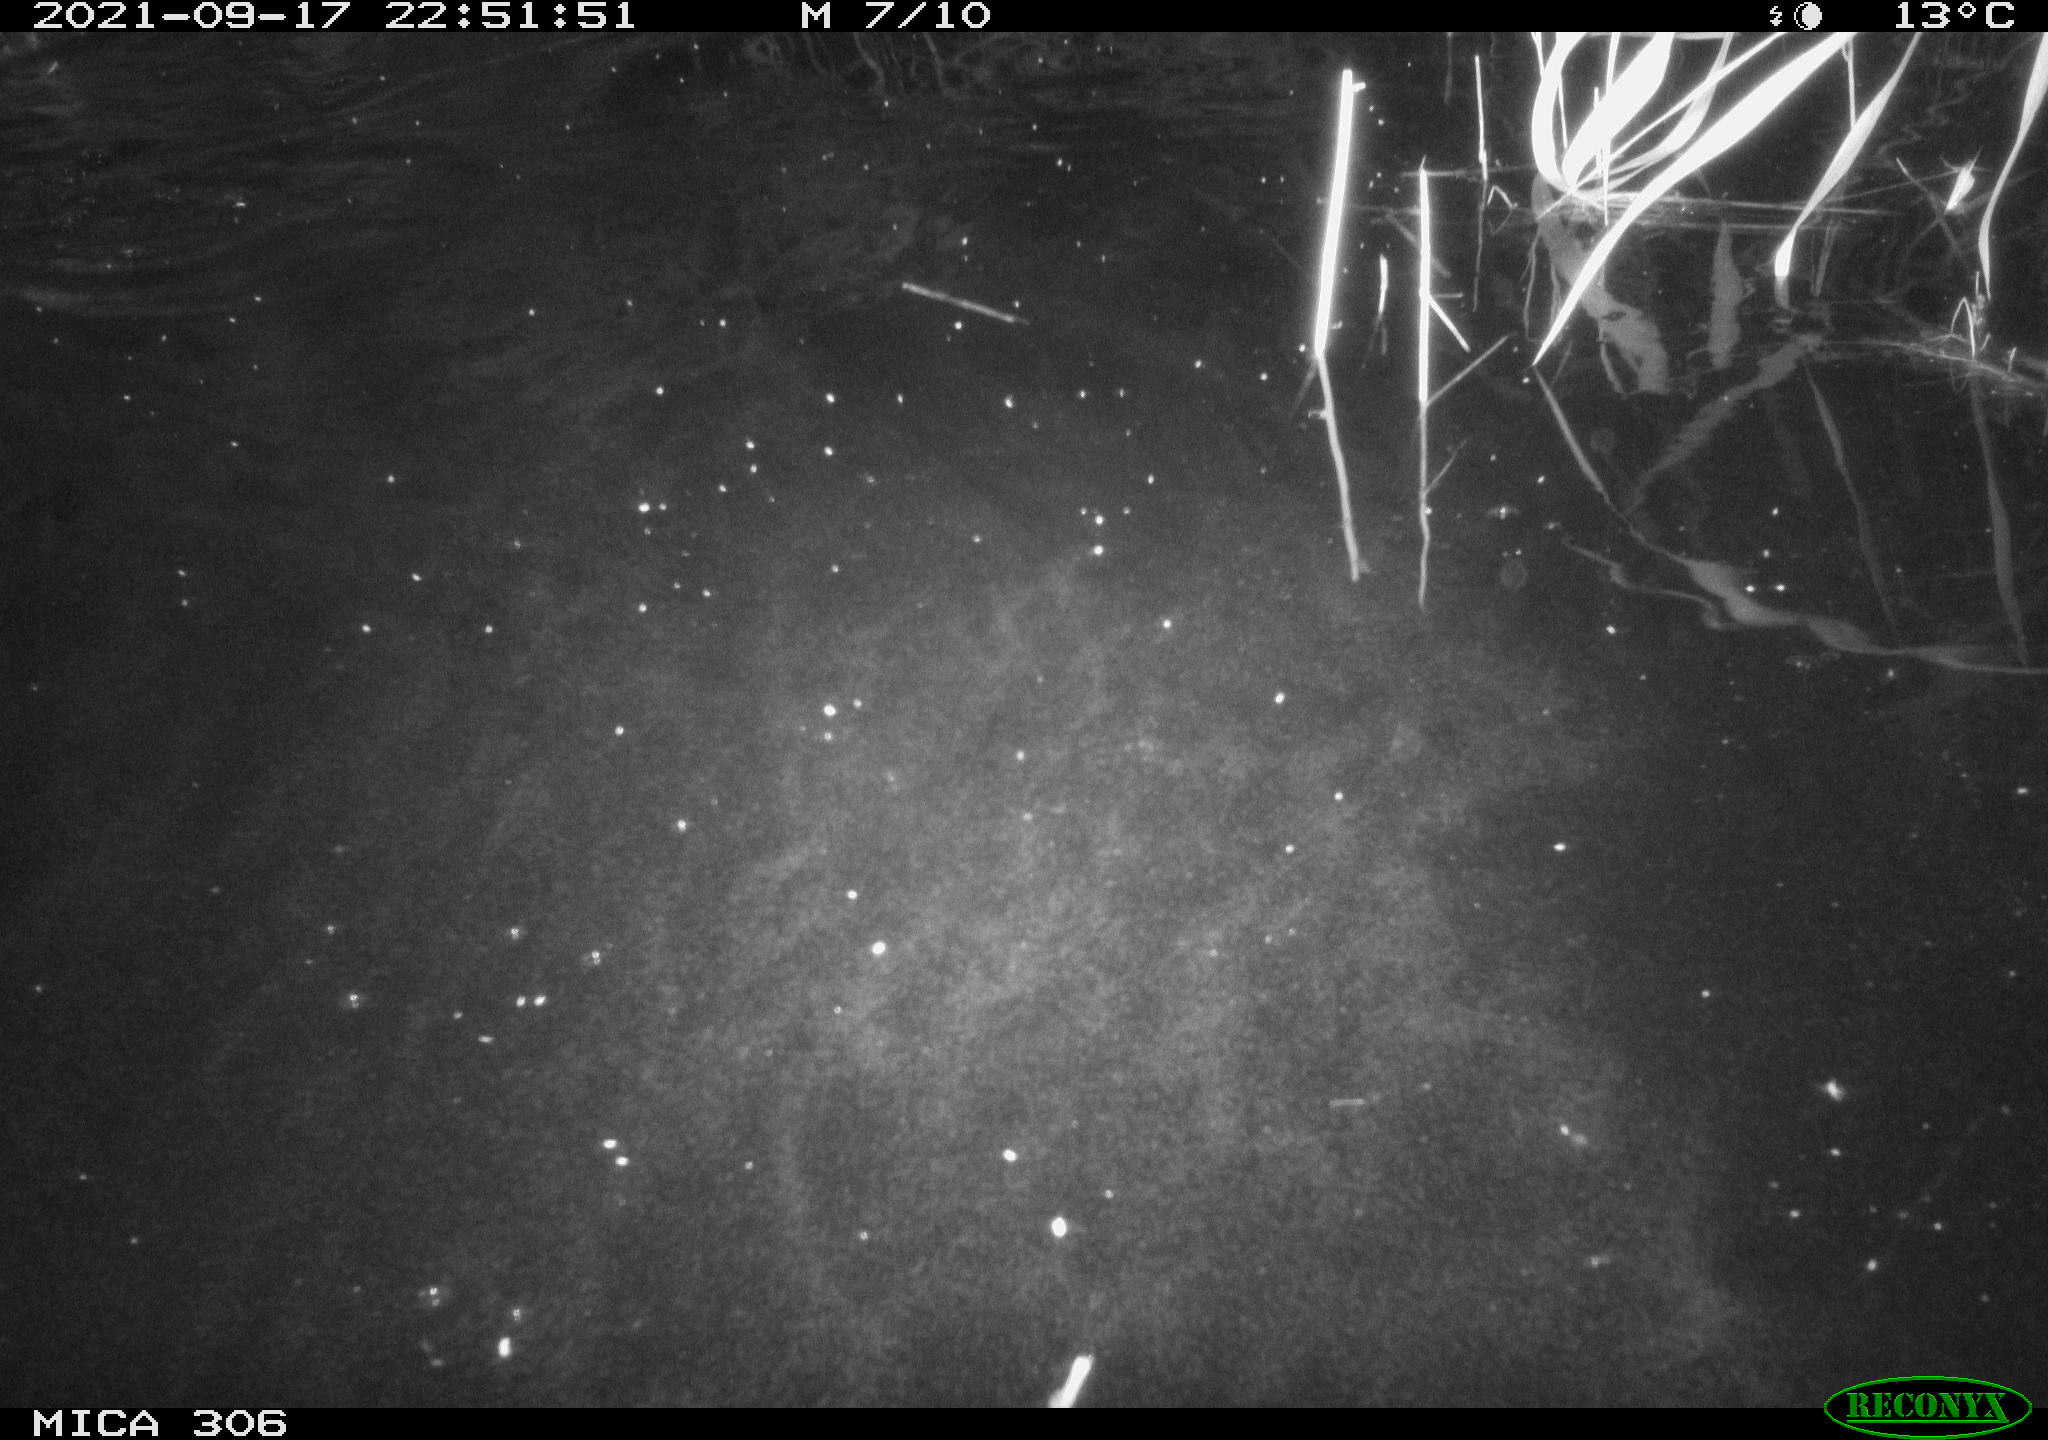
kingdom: Animalia
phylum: Chordata
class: Mammalia
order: Rodentia
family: Muridae
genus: Rattus
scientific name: Rattus norvegicus
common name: Brown rat
